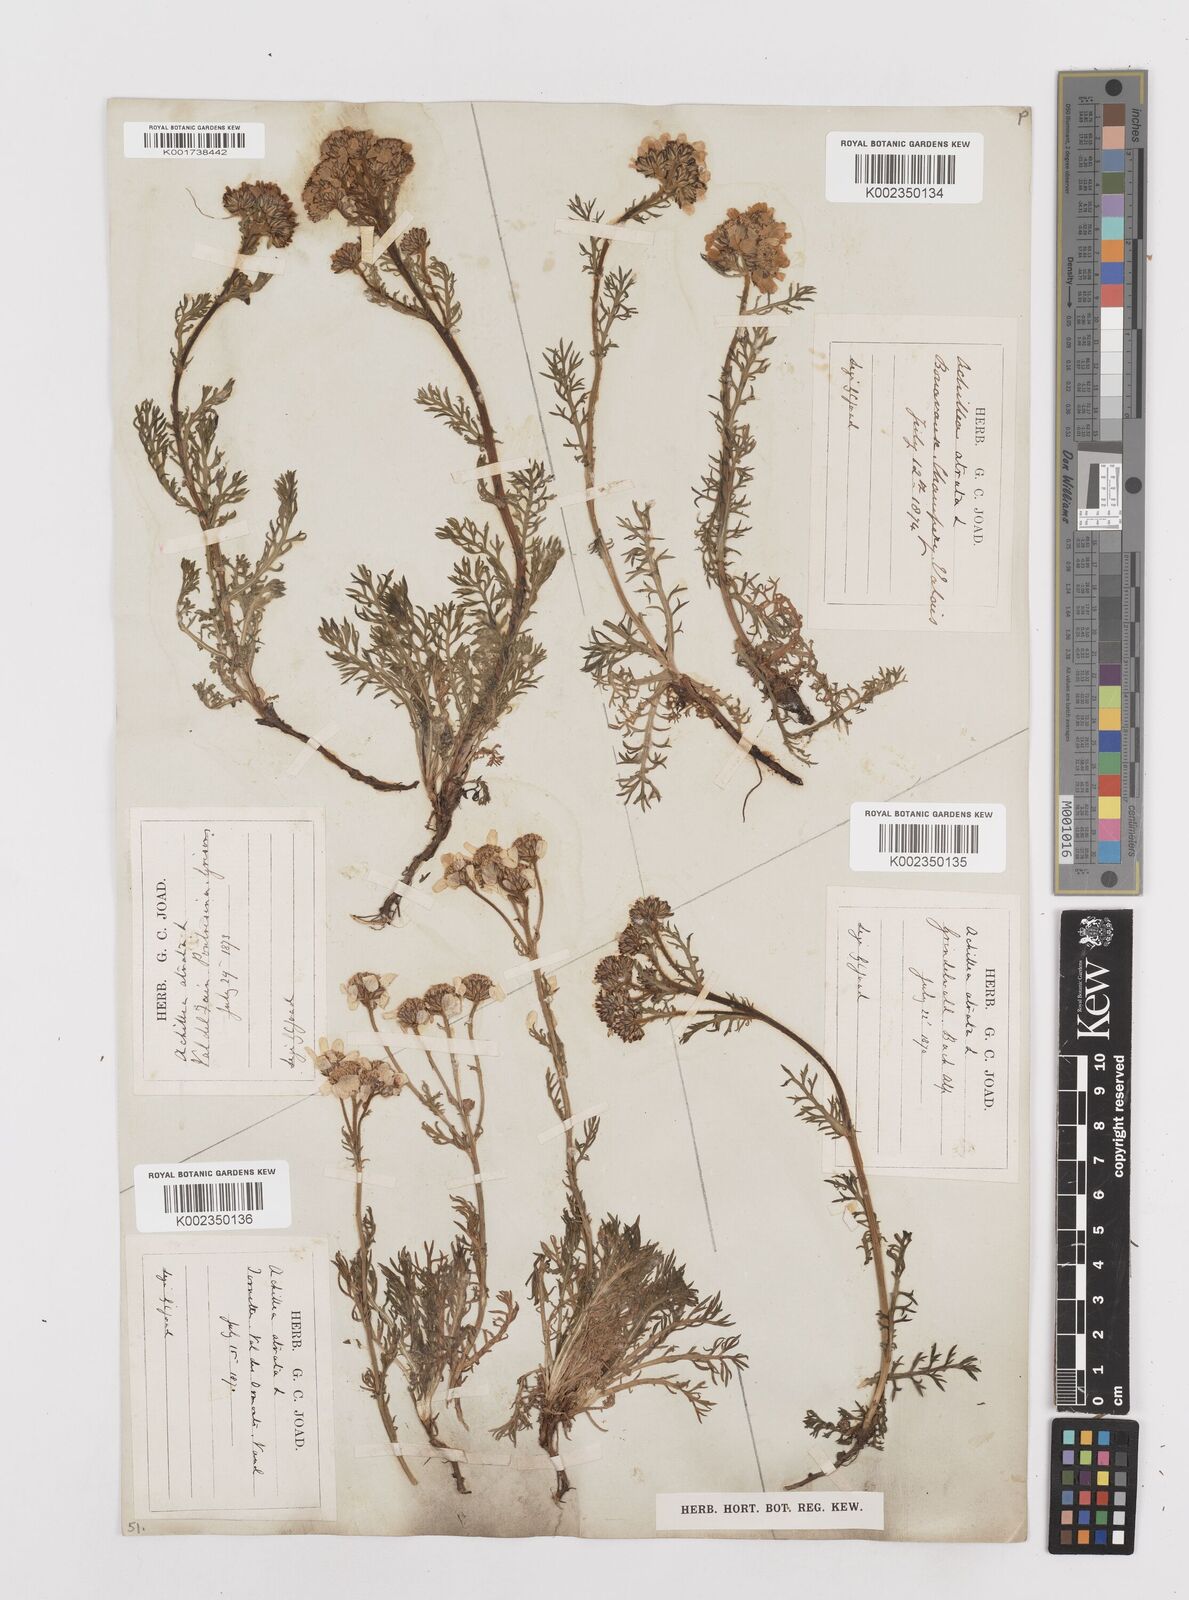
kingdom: Plantae
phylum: Tracheophyta
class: Magnoliopsida
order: Asterales
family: Asteraceae
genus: Achillea
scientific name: Achillea atrata
